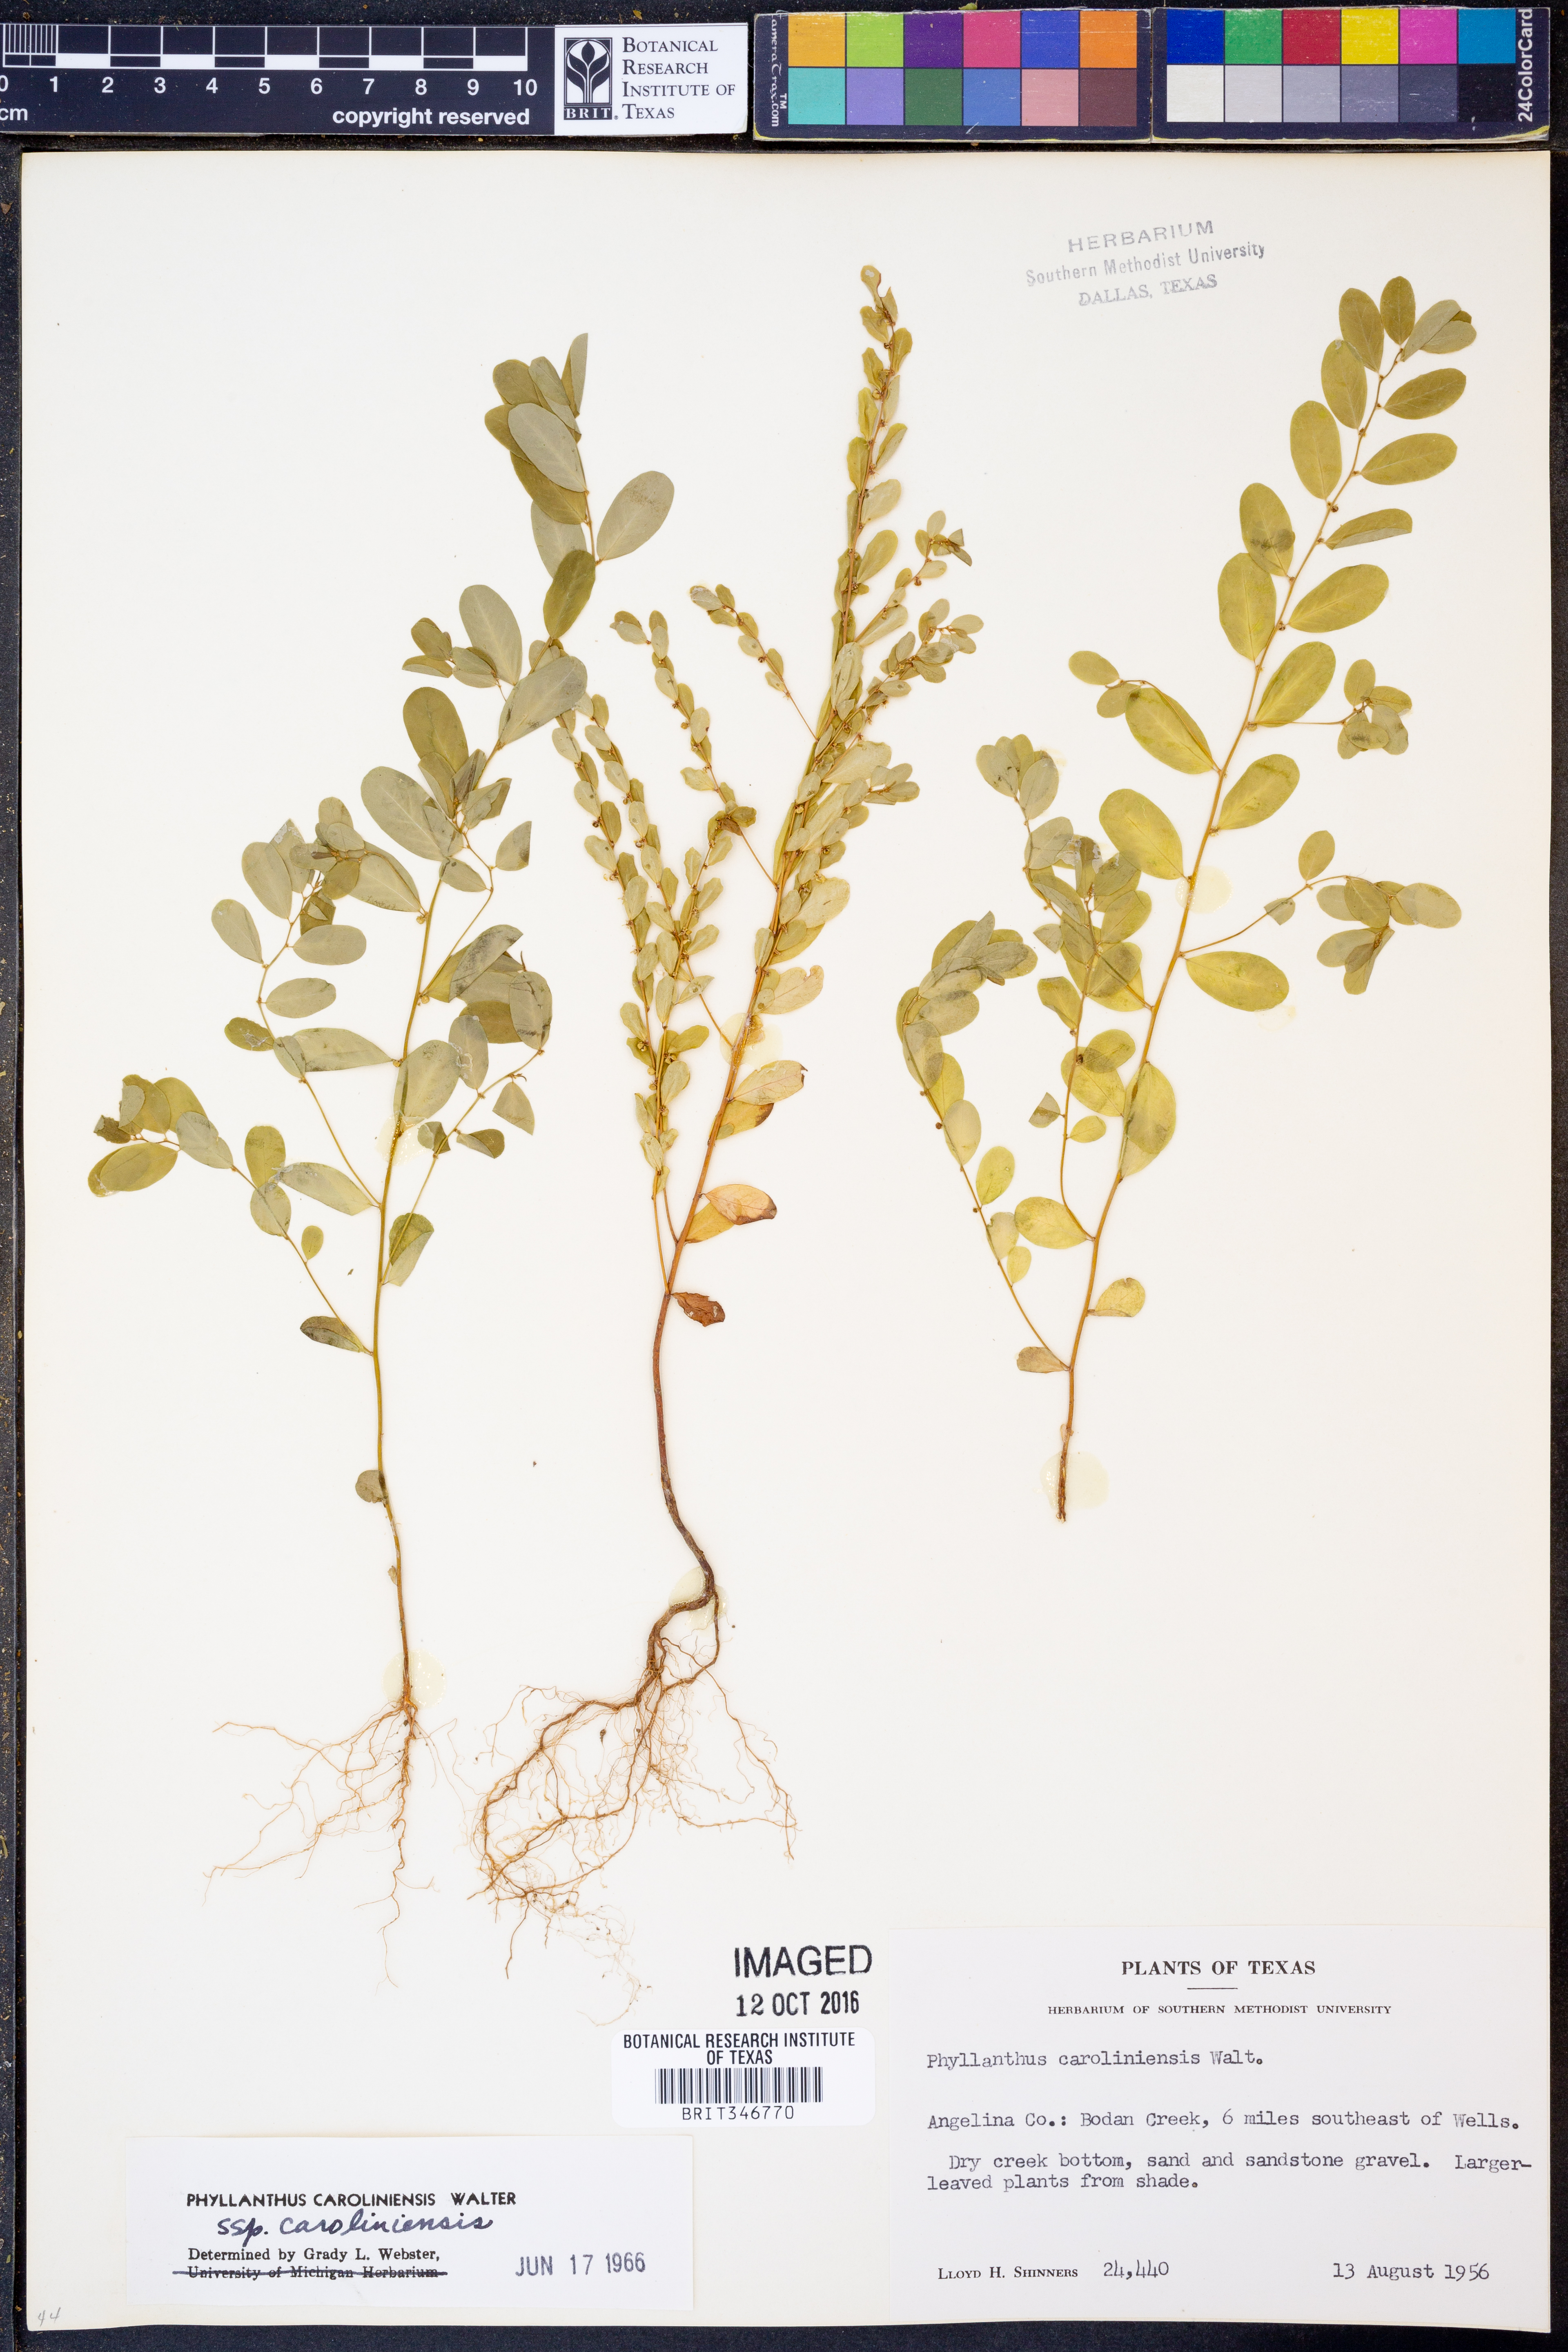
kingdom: Plantae
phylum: Tracheophyta
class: Magnoliopsida
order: Malpighiales
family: Phyllanthaceae
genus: Phyllanthus
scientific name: Phyllanthus caroliniensis
